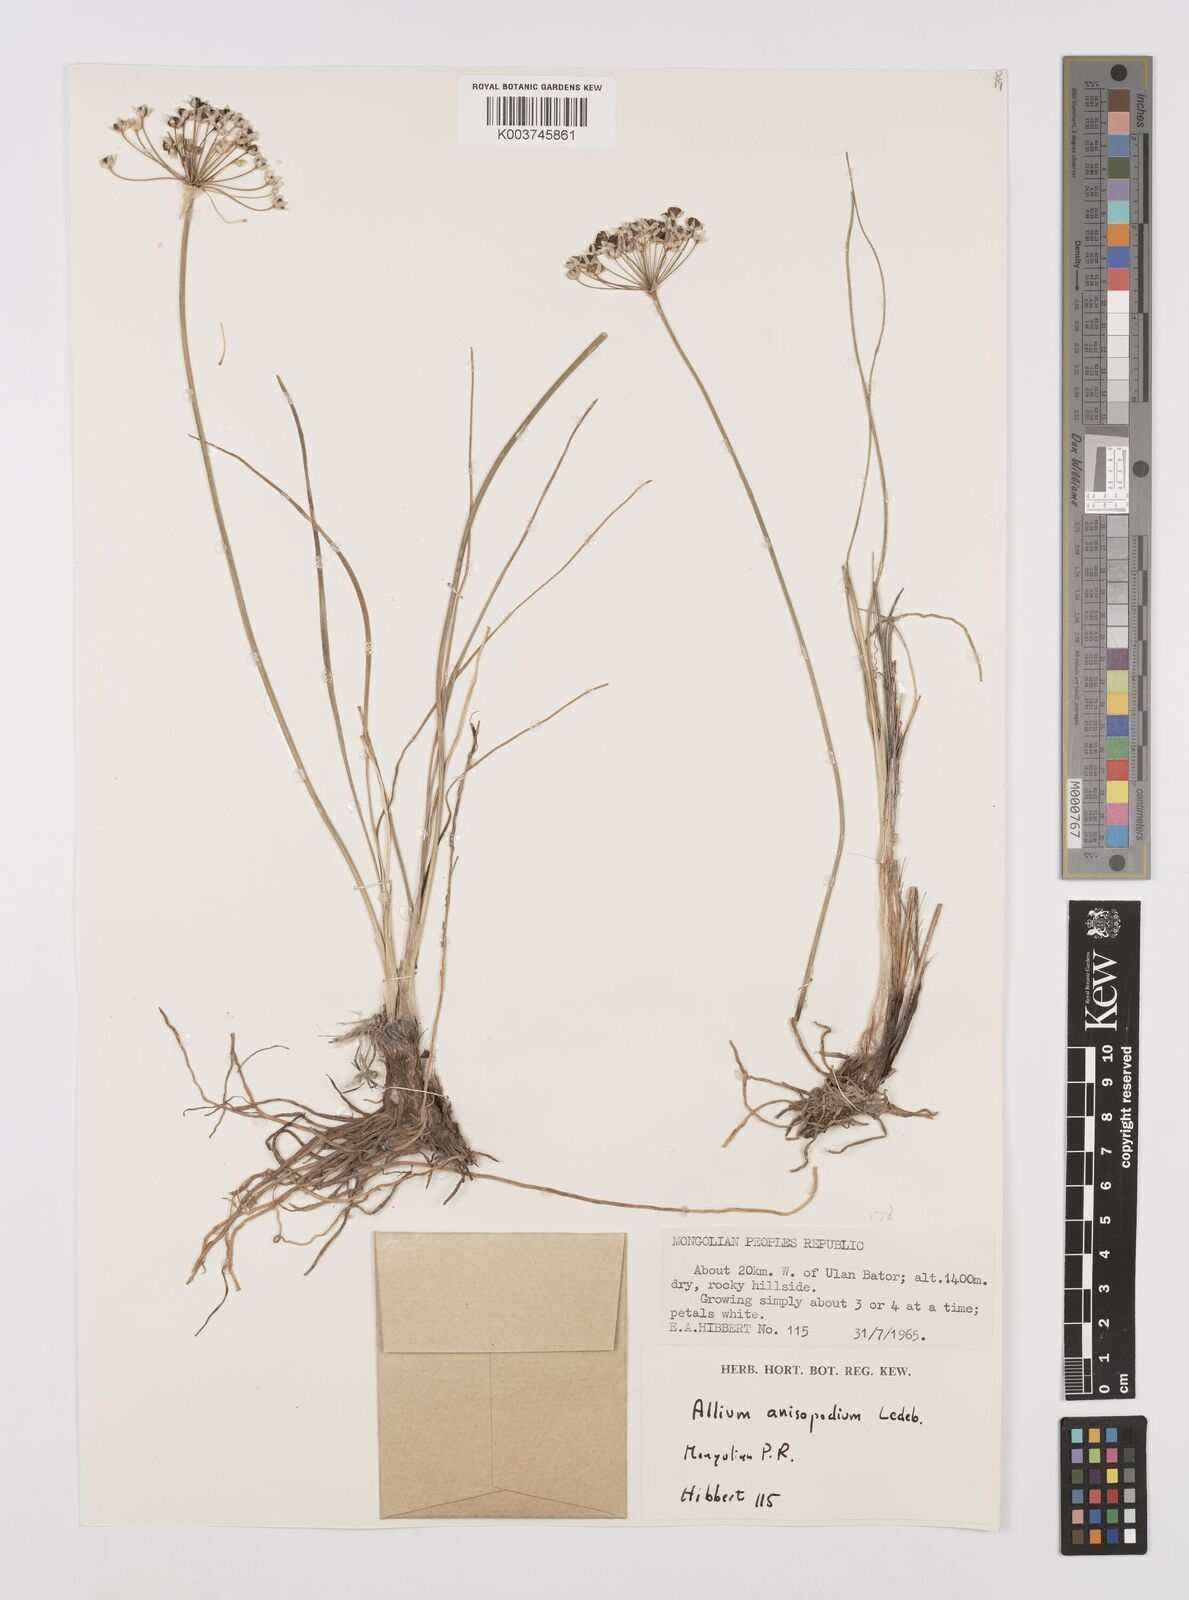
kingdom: Plantae
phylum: Tracheophyta
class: Liliopsida
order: Asparagales
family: Amaryllidaceae
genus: Allium
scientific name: Allium anisopodium
